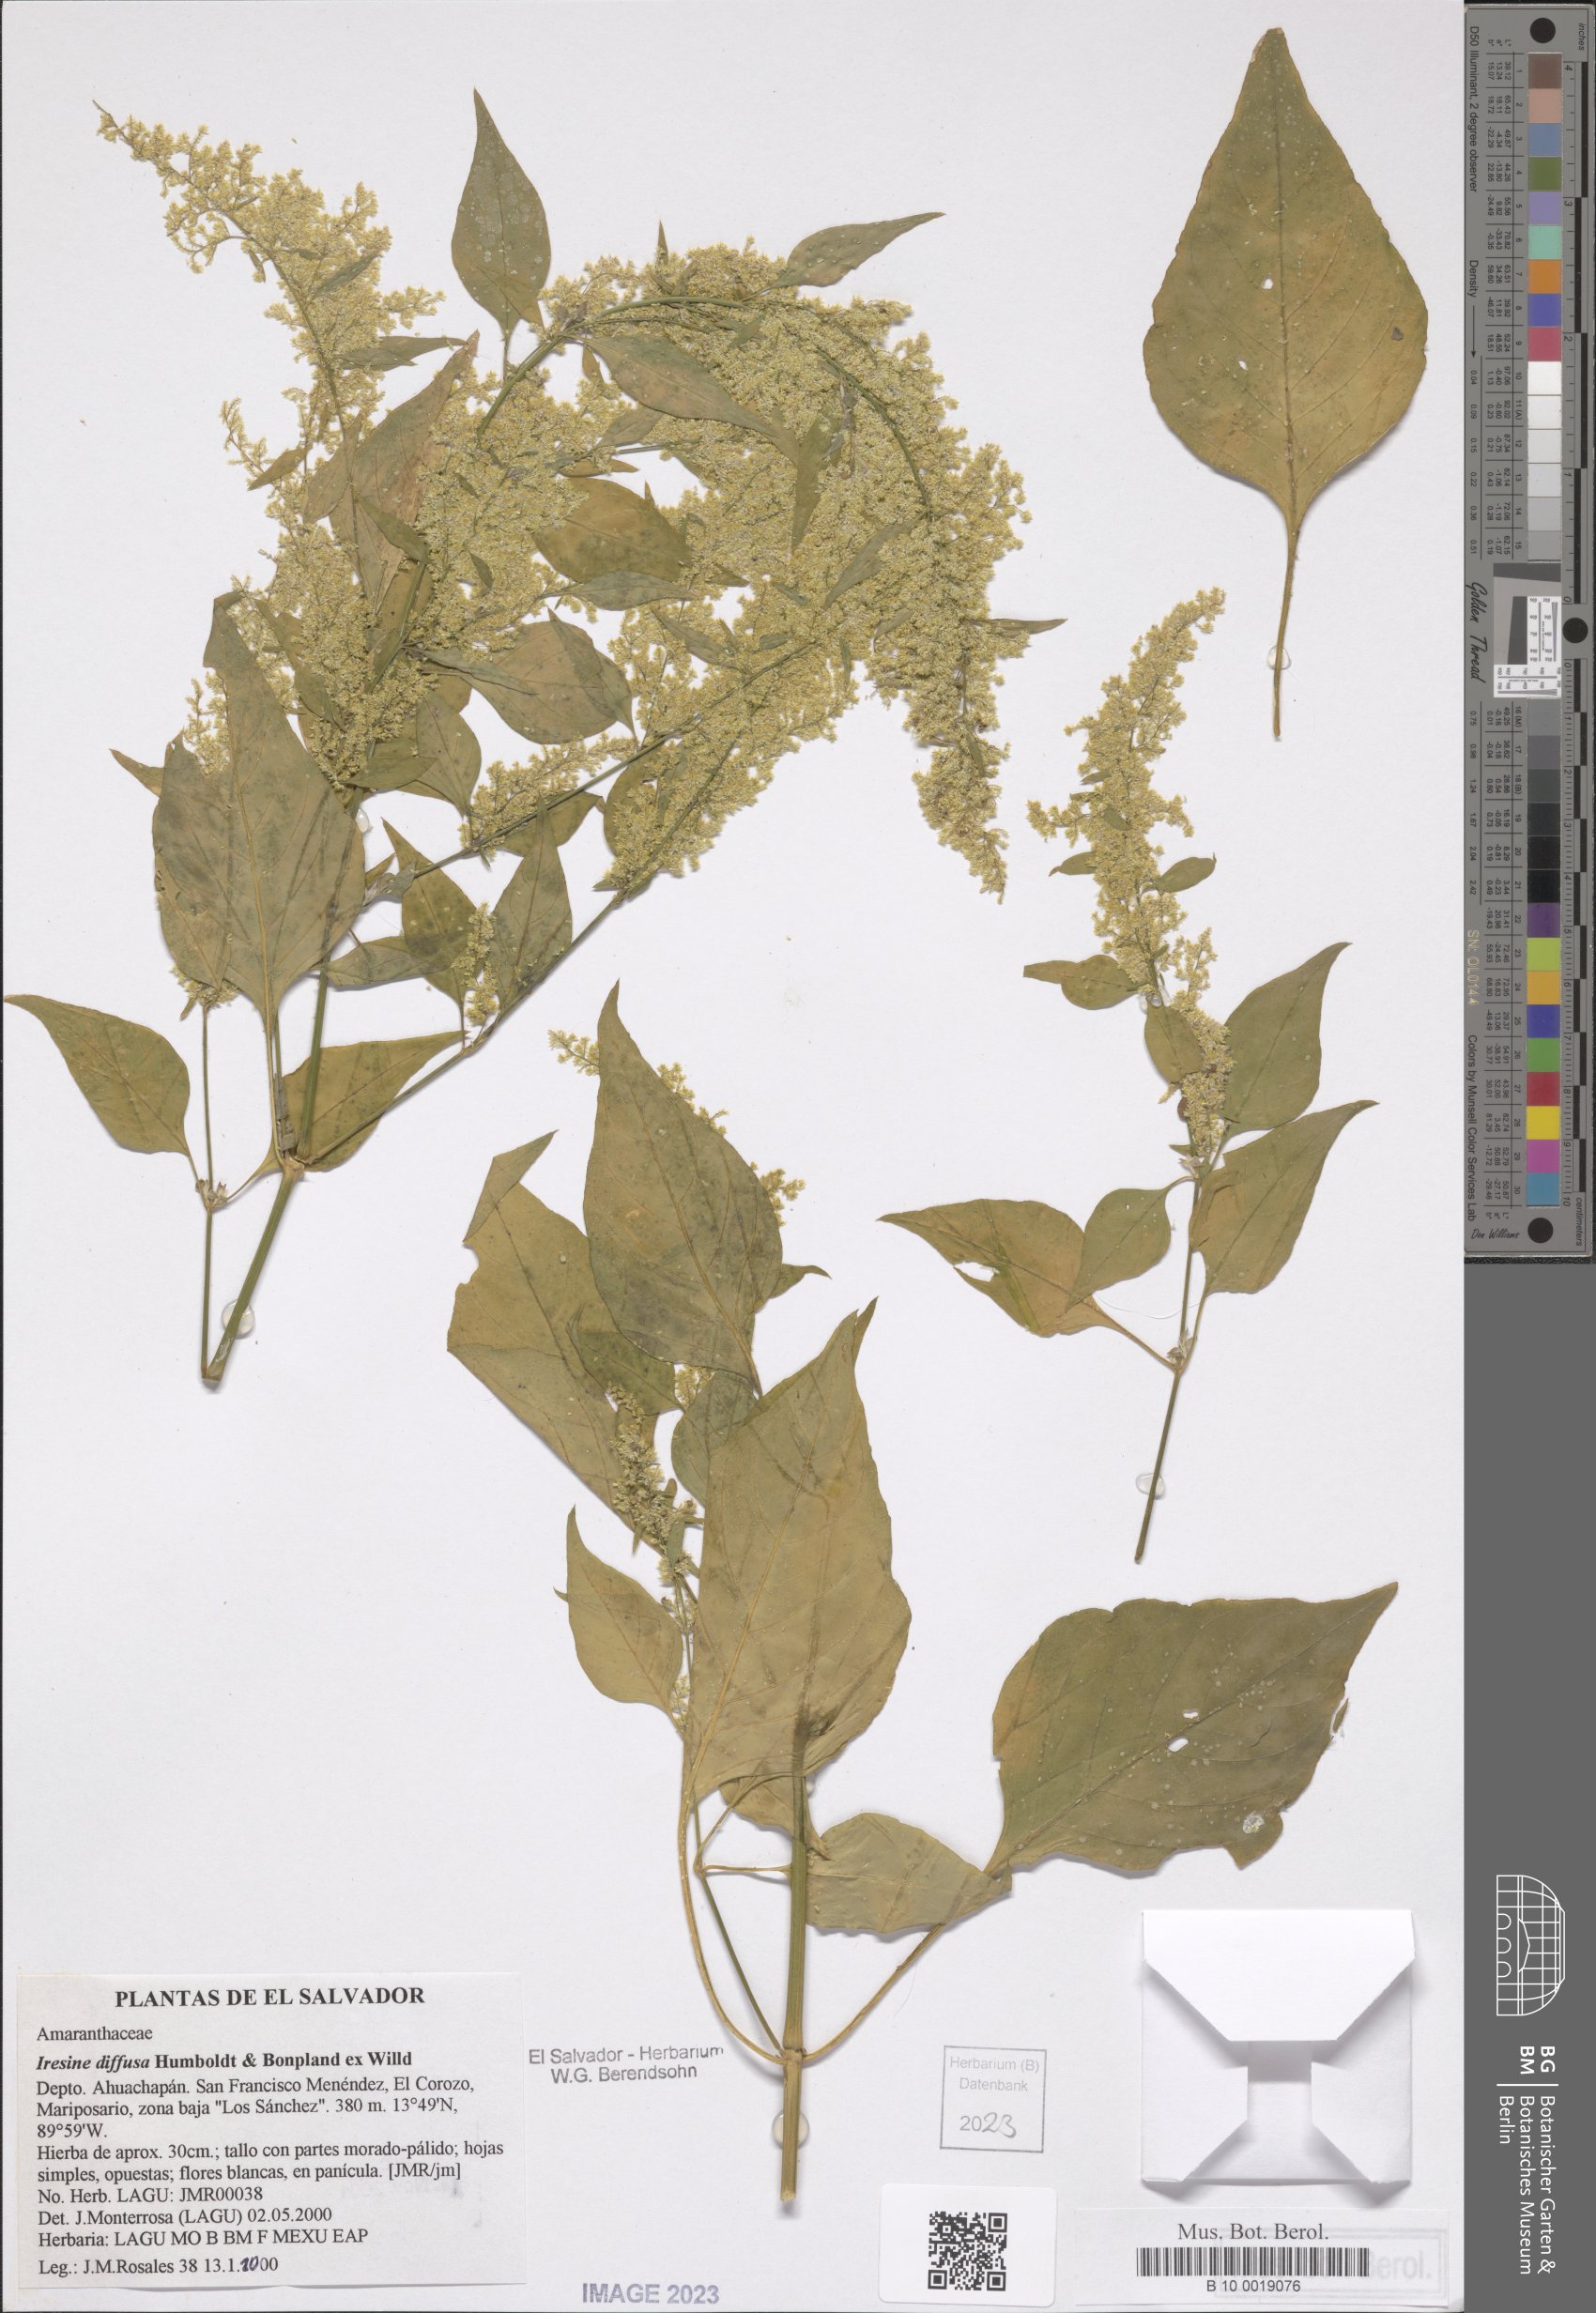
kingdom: Plantae
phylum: Tracheophyta
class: Magnoliopsida
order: Caryophyllales
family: Amaranthaceae
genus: Iresine
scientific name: Iresine diffusa
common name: Juba's-bush
